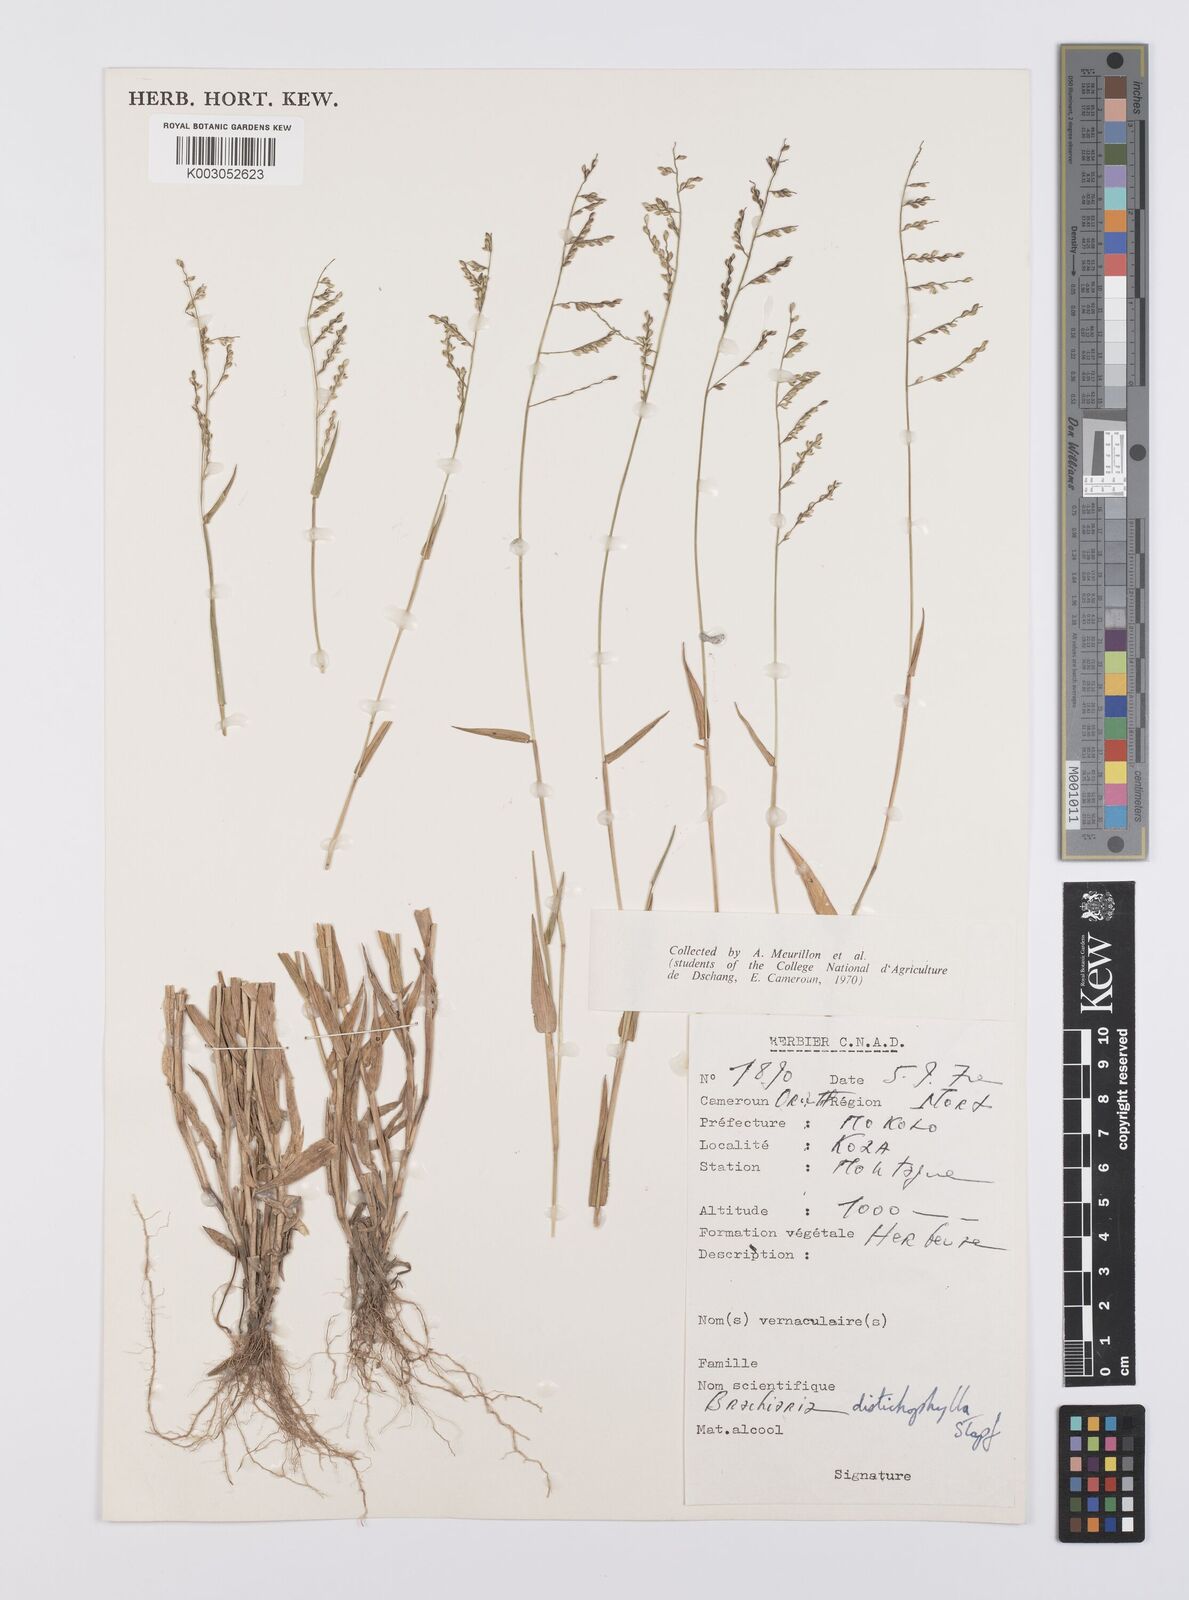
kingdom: Plantae
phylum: Tracheophyta
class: Liliopsida
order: Poales
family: Poaceae
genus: Urochloa
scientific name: Urochloa villosa
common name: Hairy signalgrass
